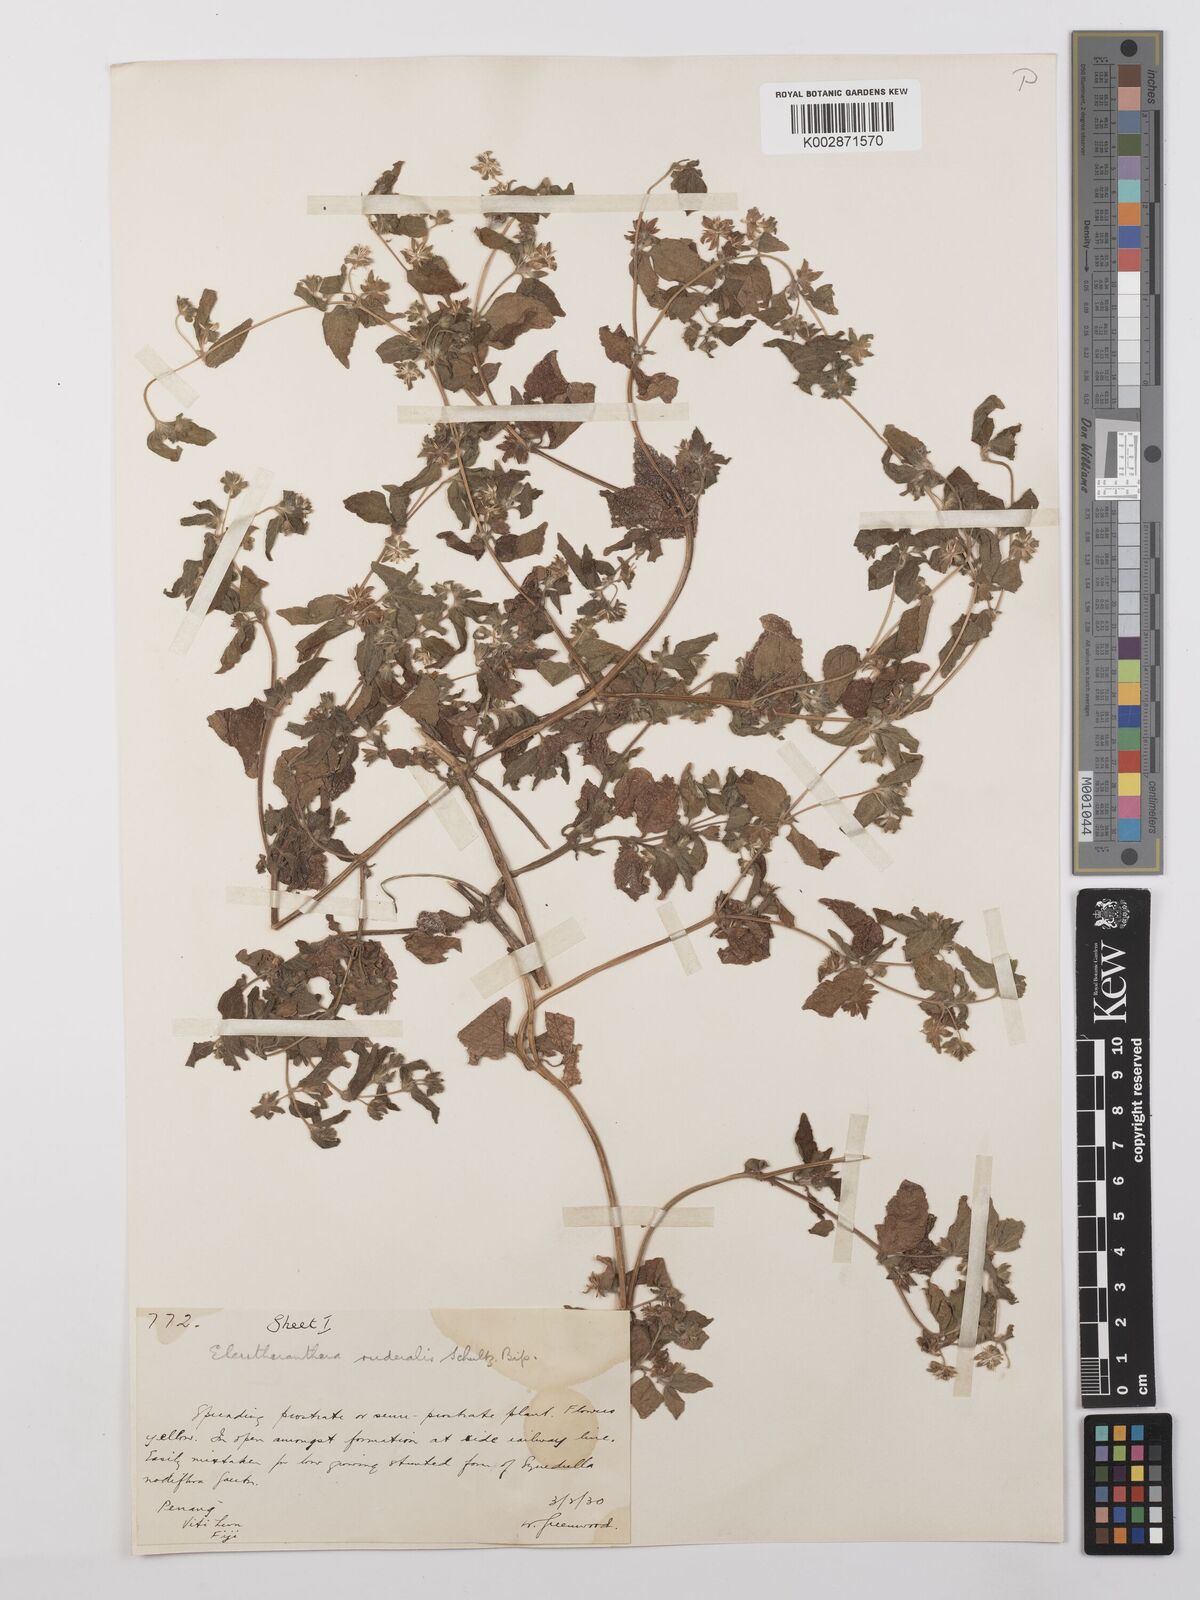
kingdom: Plantae
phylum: Tracheophyta
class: Magnoliopsida
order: Asterales
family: Asteraceae
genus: Eleutheranthera
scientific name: Eleutheranthera ruderalis
